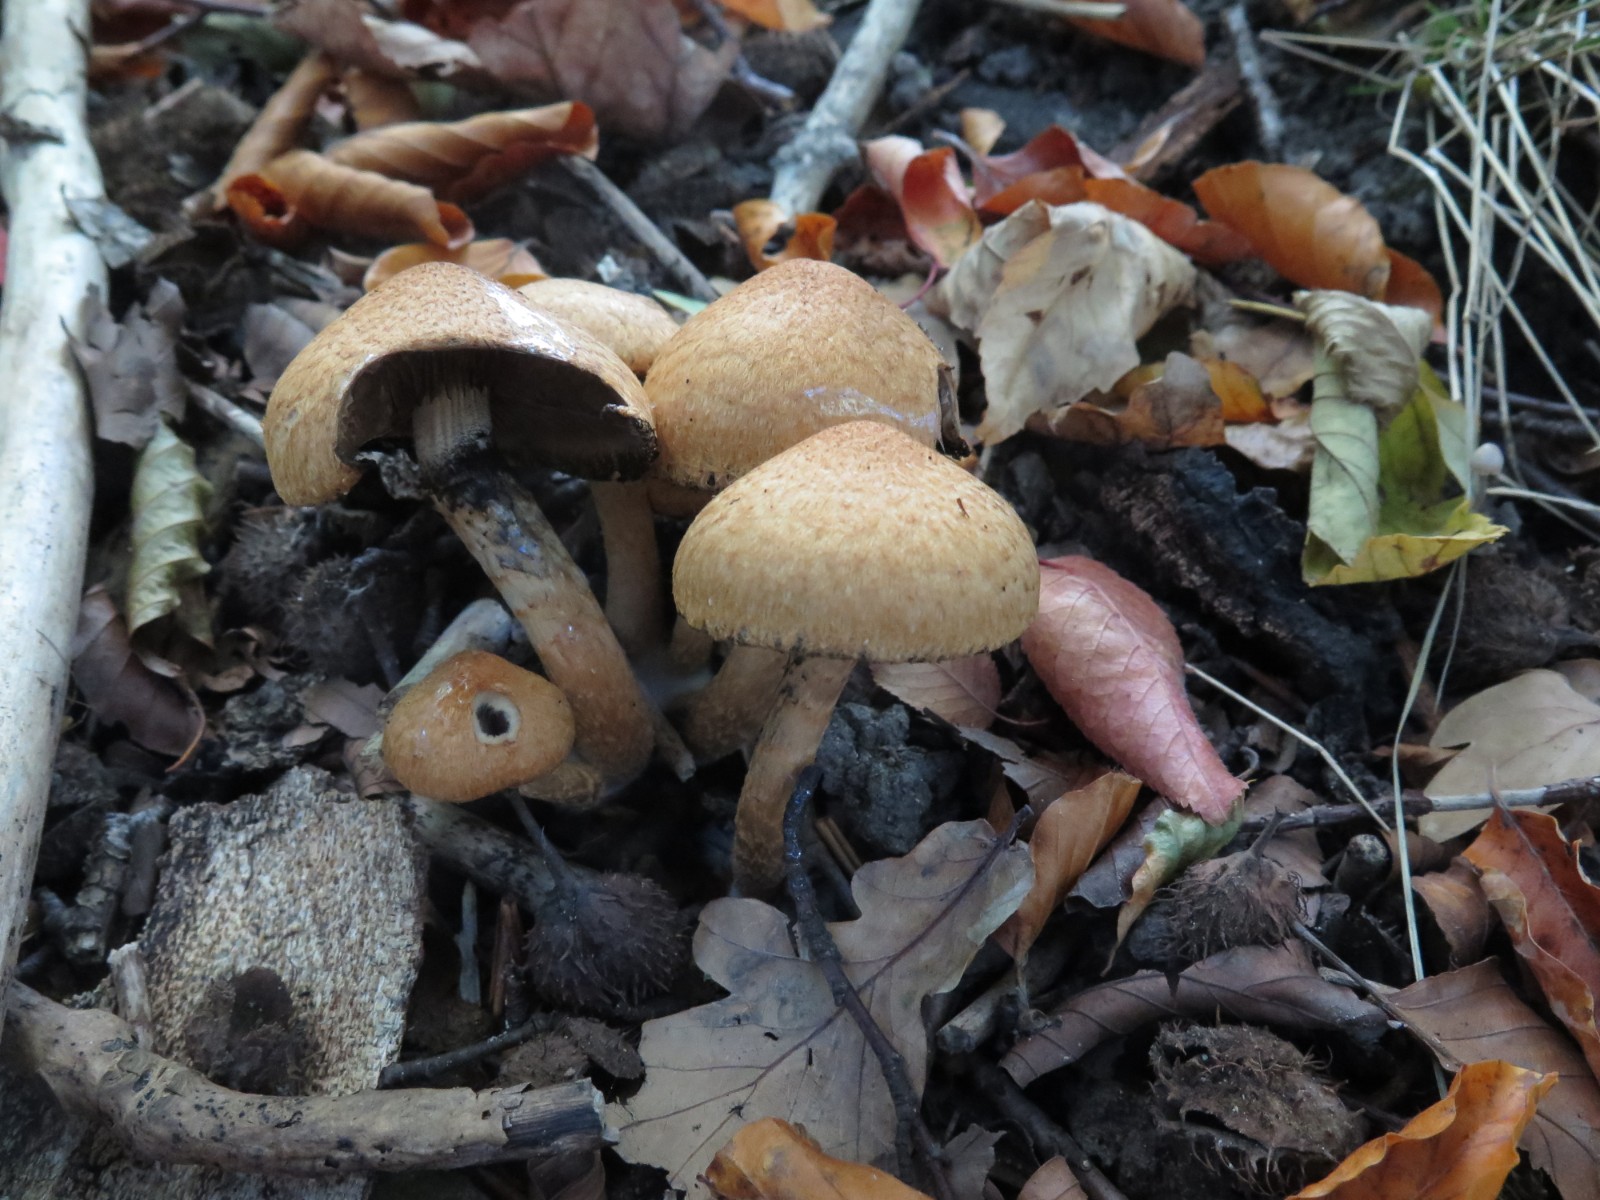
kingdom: Fungi
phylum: Basidiomycota
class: Agaricomycetes
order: Agaricales
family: Psathyrellaceae
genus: Lacrymaria
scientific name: Lacrymaria lacrymabunda
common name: grædende mørkhat
